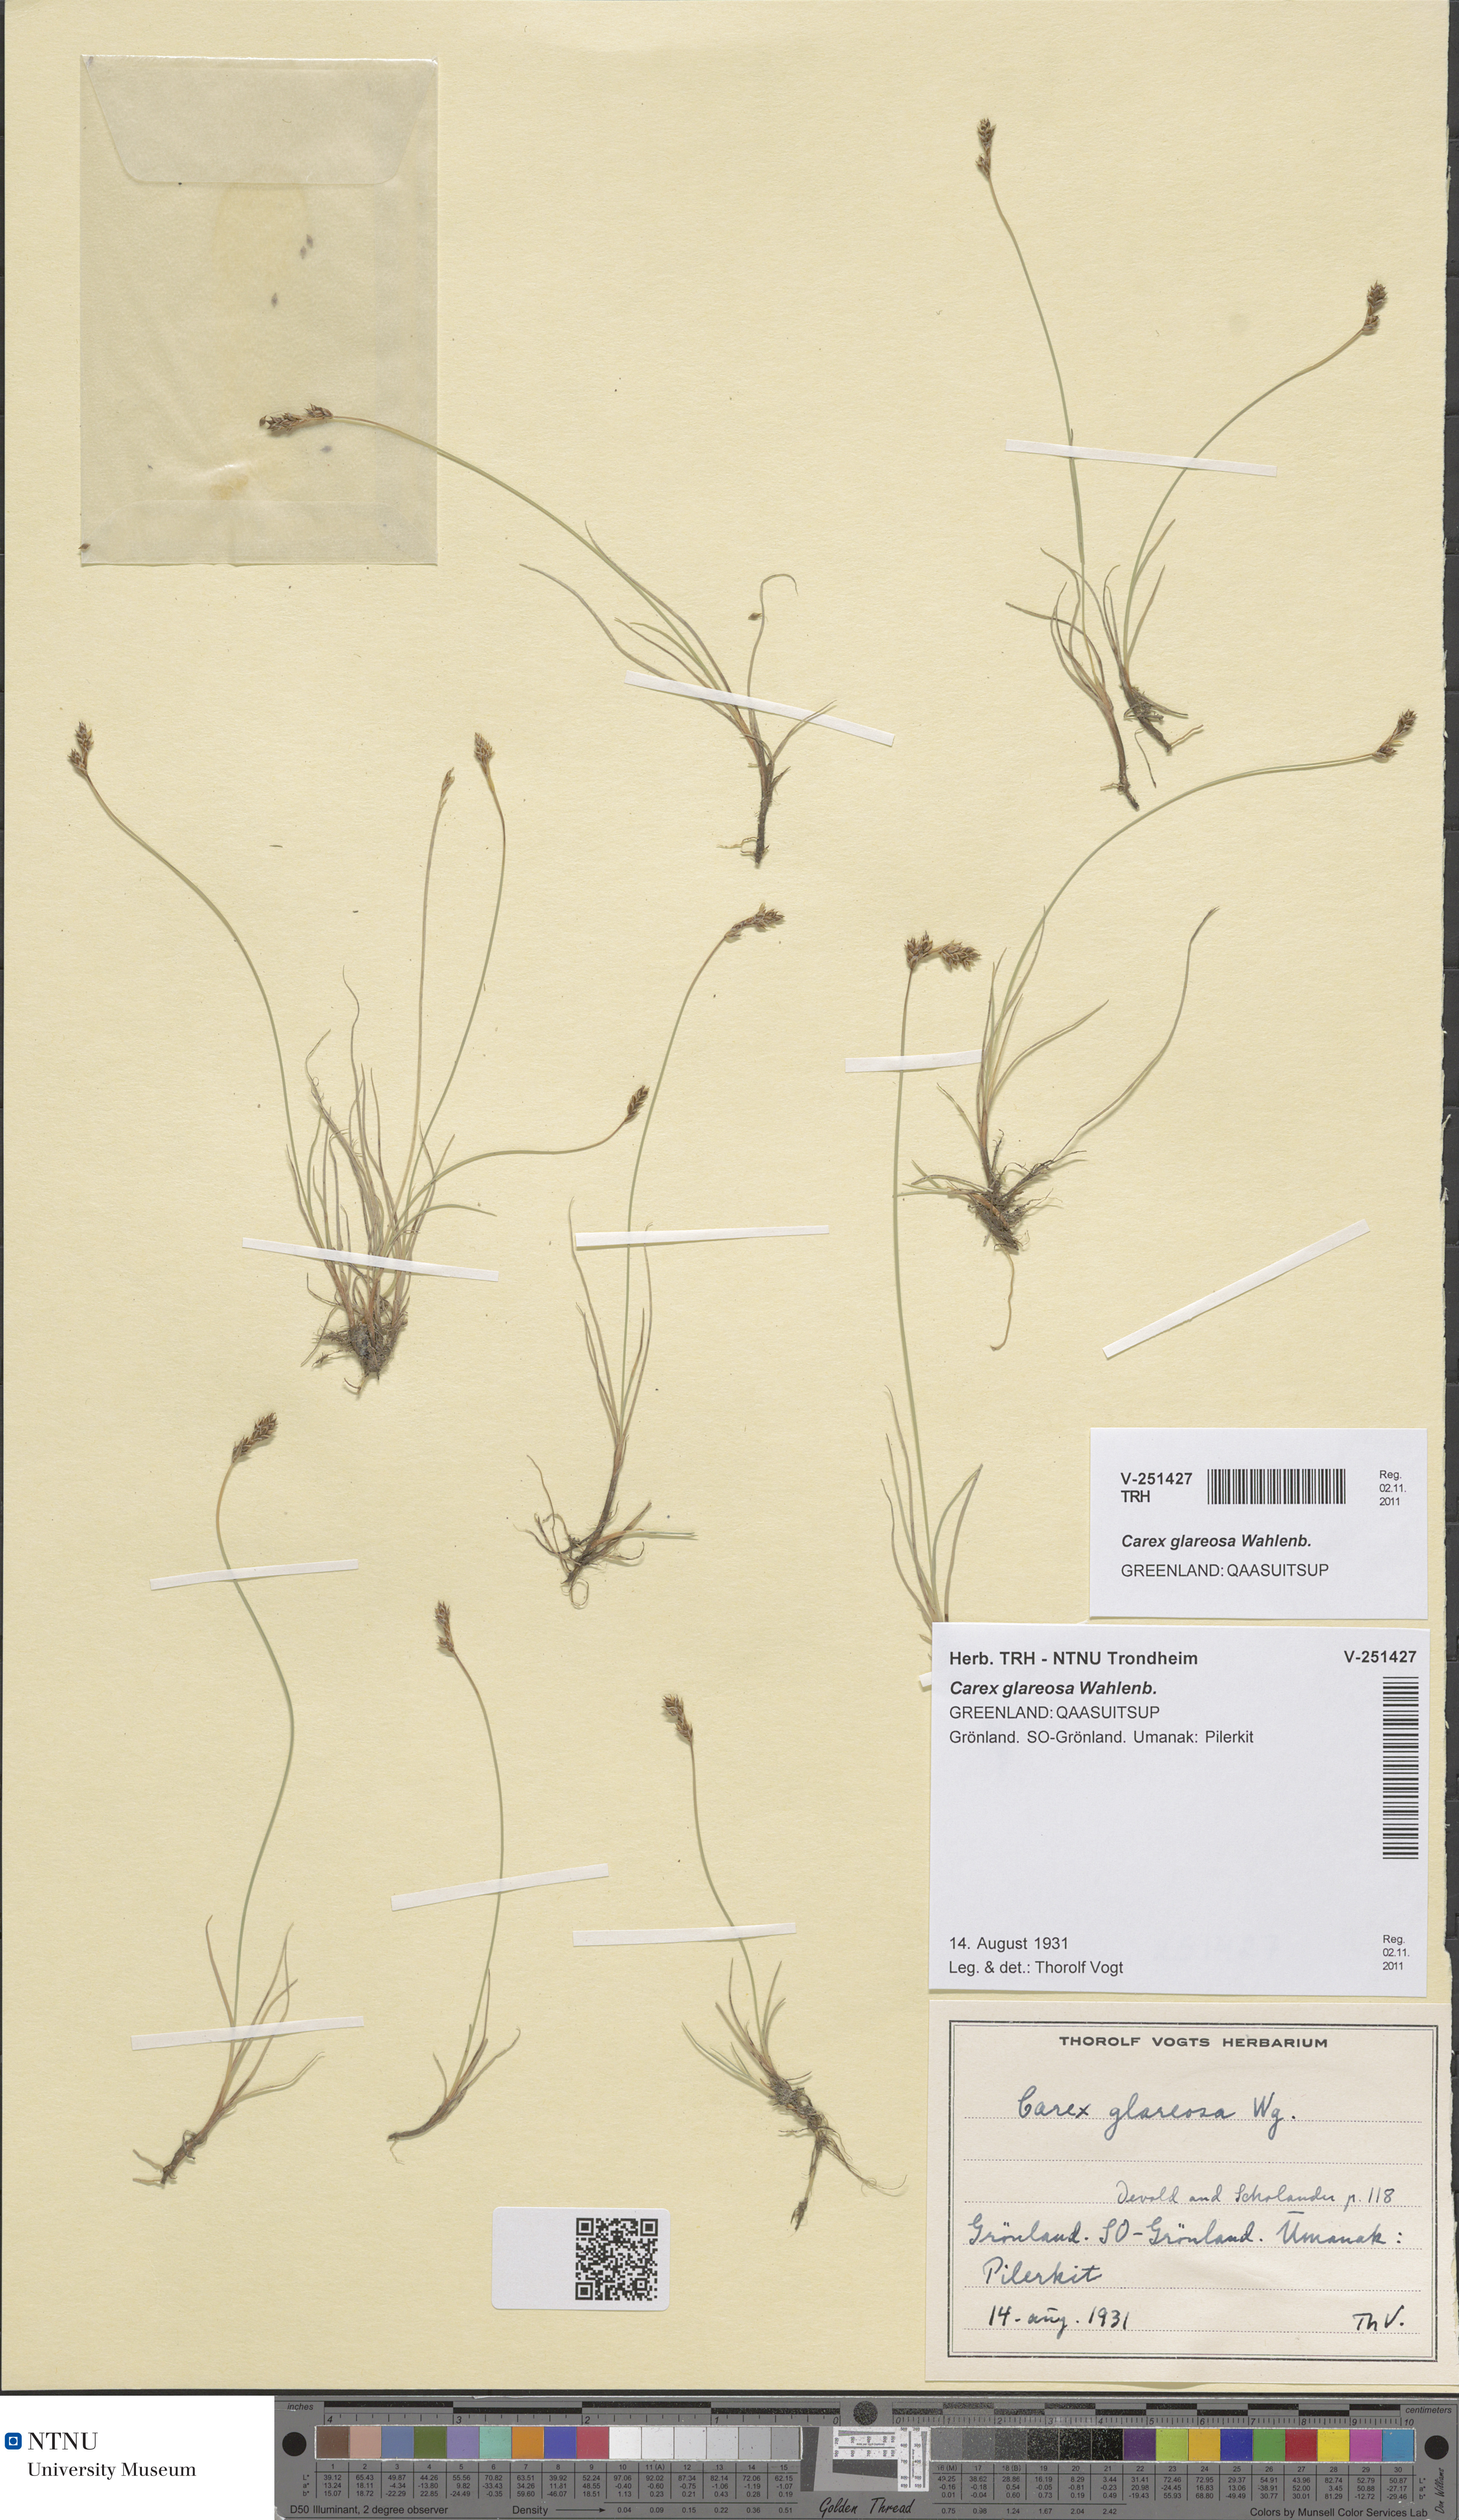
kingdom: Plantae
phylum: Tracheophyta
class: Liliopsida
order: Poales
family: Cyperaceae
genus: Carex
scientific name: Carex glareosa
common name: Clustered sedge
